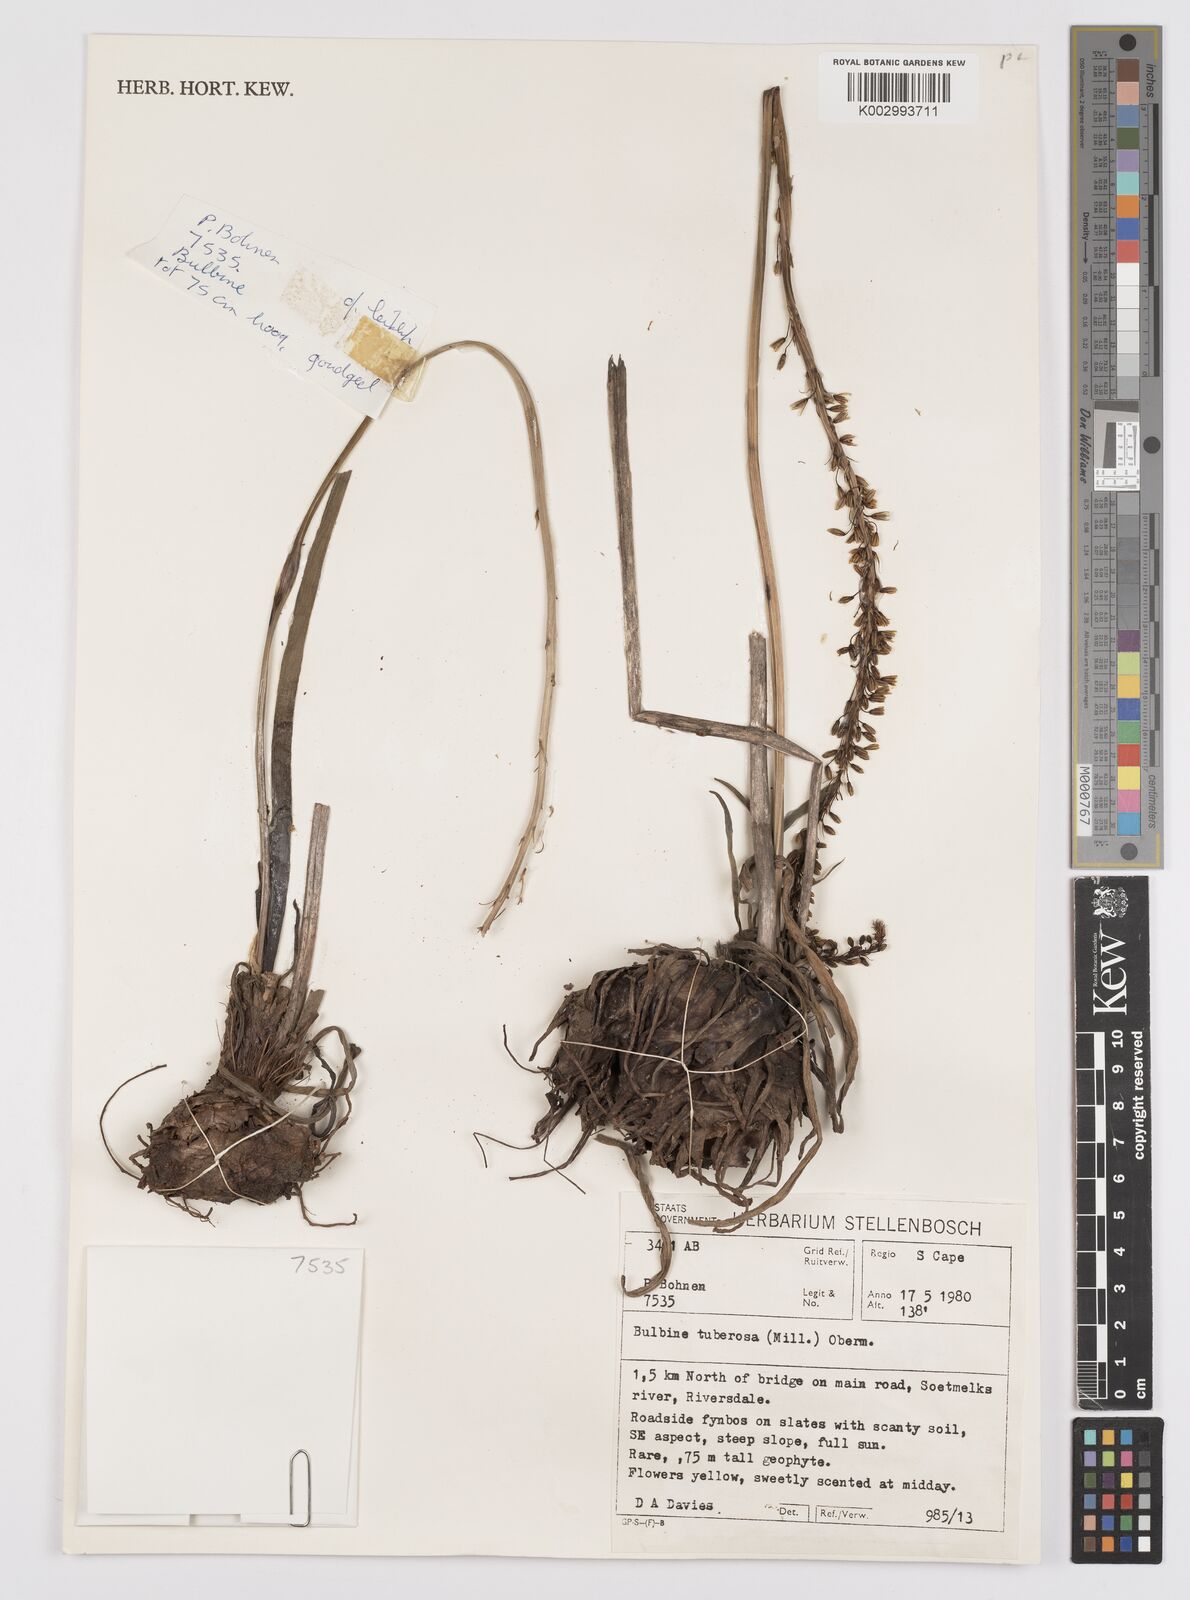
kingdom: Plantae
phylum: Tracheophyta
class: Liliopsida
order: Asparagales
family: Asphodelaceae
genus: Bulbine
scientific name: Bulbine cepacea
